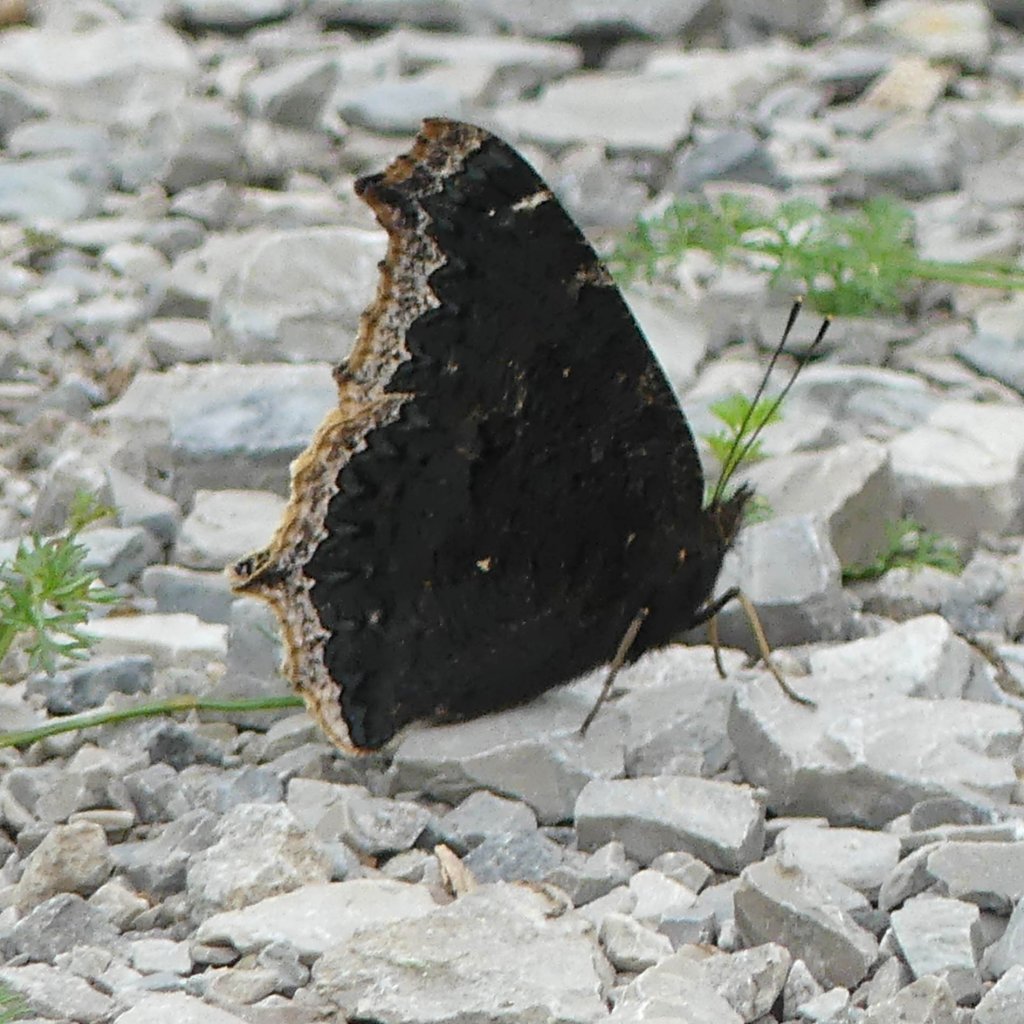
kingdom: Animalia
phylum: Arthropoda
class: Insecta
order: Lepidoptera
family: Nymphalidae
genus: Nymphalis
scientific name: Nymphalis antiopa
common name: Mourning Cloak
